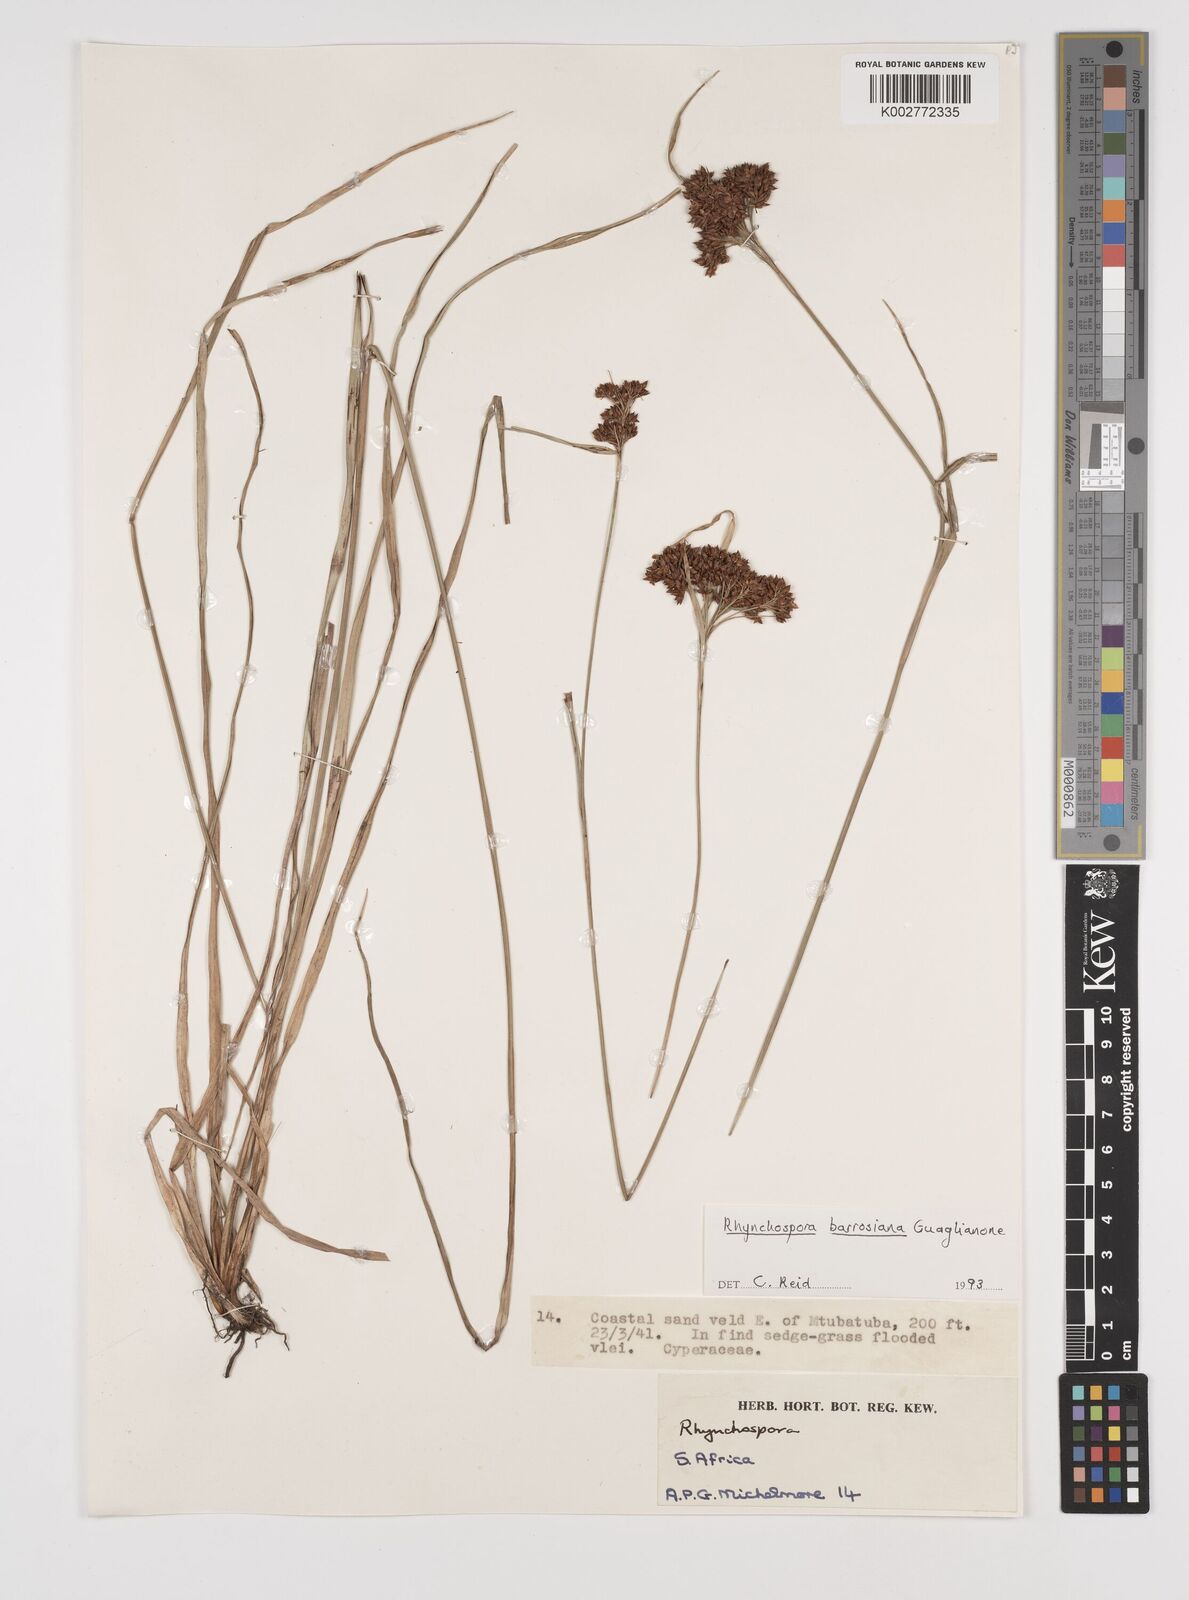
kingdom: Plantae
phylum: Tracheophyta
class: Liliopsida
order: Poales
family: Cyperaceae
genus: Rhynchospora
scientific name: Rhynchospora barrosiana
